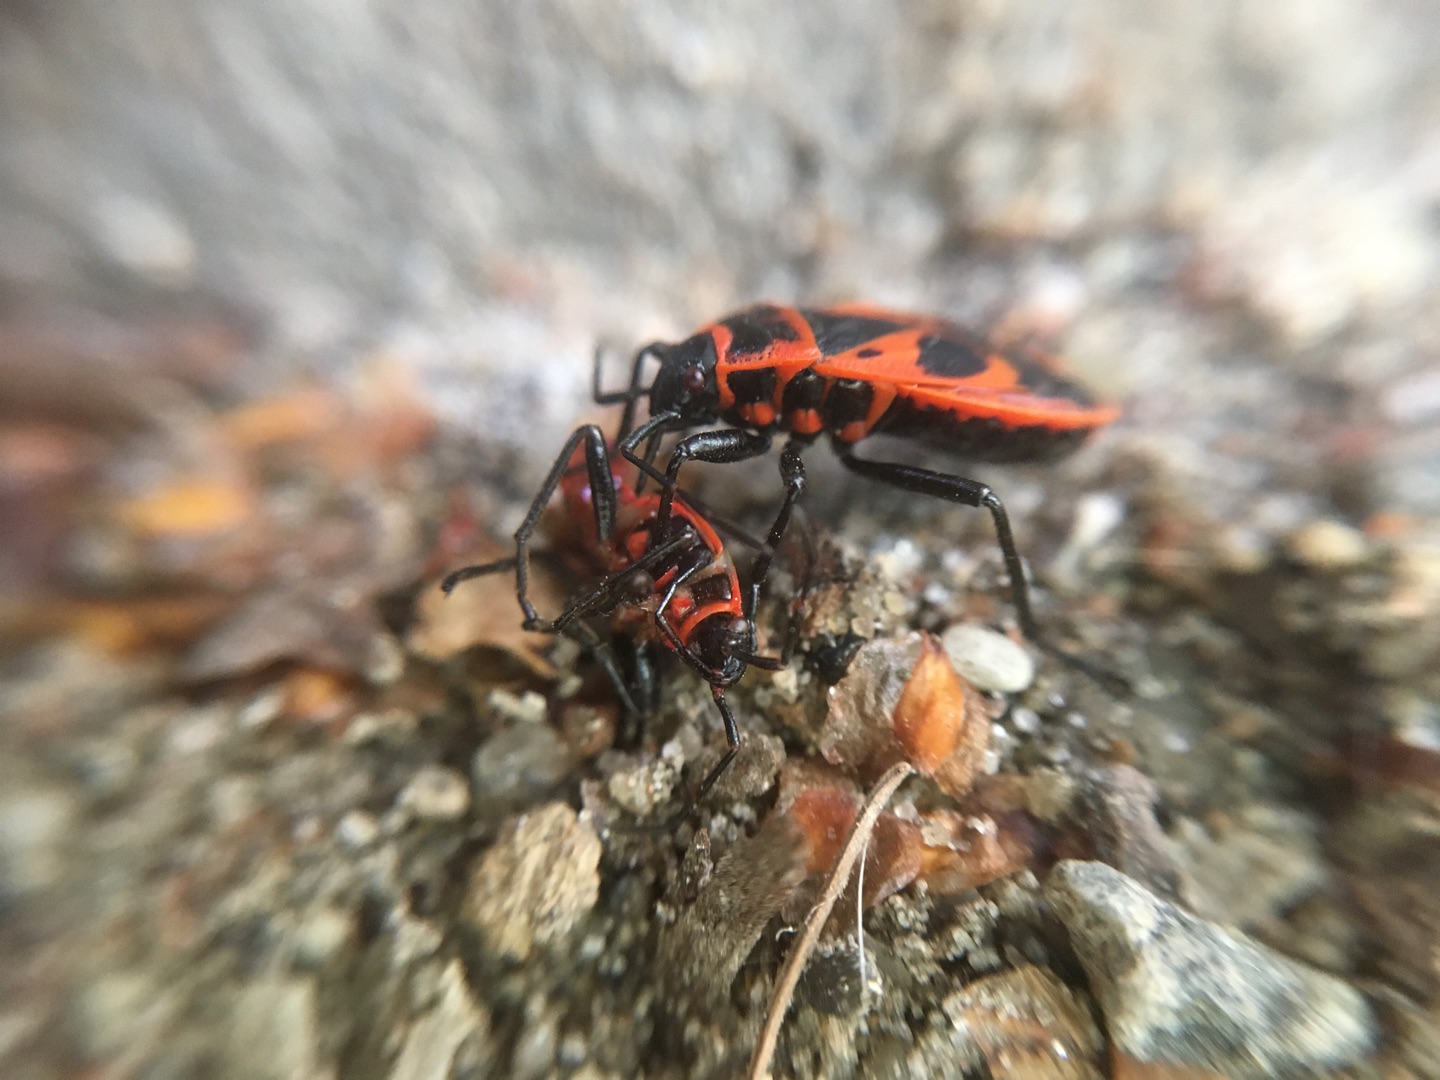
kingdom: Animalia
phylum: Arthropoda
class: Insecta
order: Hemiptera
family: Pyrrhocoridae
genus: Pyrrhocoris
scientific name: Pyrrhocoris apterus
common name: Ildtæge
